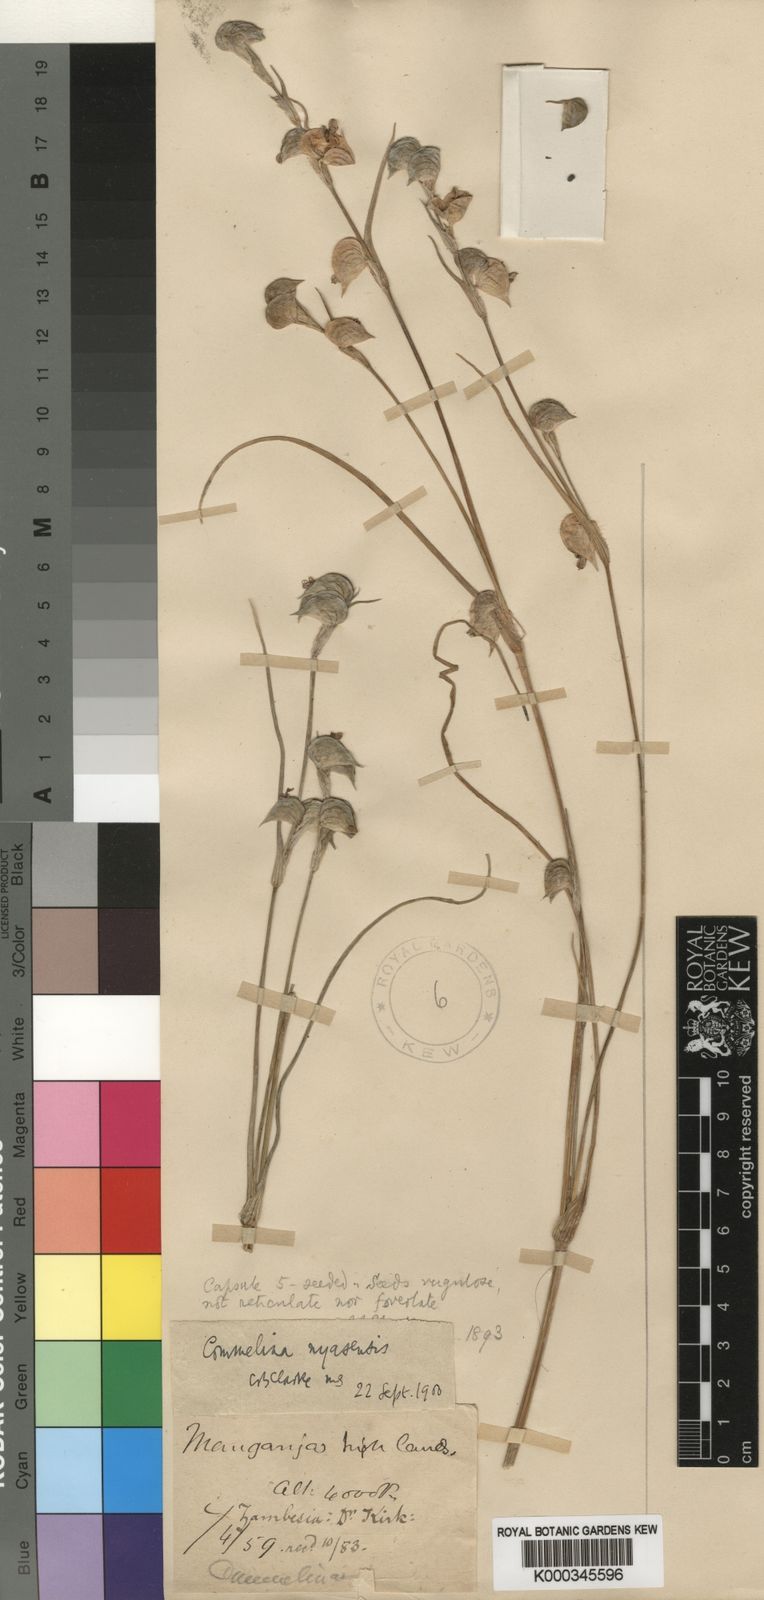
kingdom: Plantae
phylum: Tracheophyta
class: Liliopsida
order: Commelinales
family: Commelinaceae
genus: Commelina
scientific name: Commelina nyasensis
